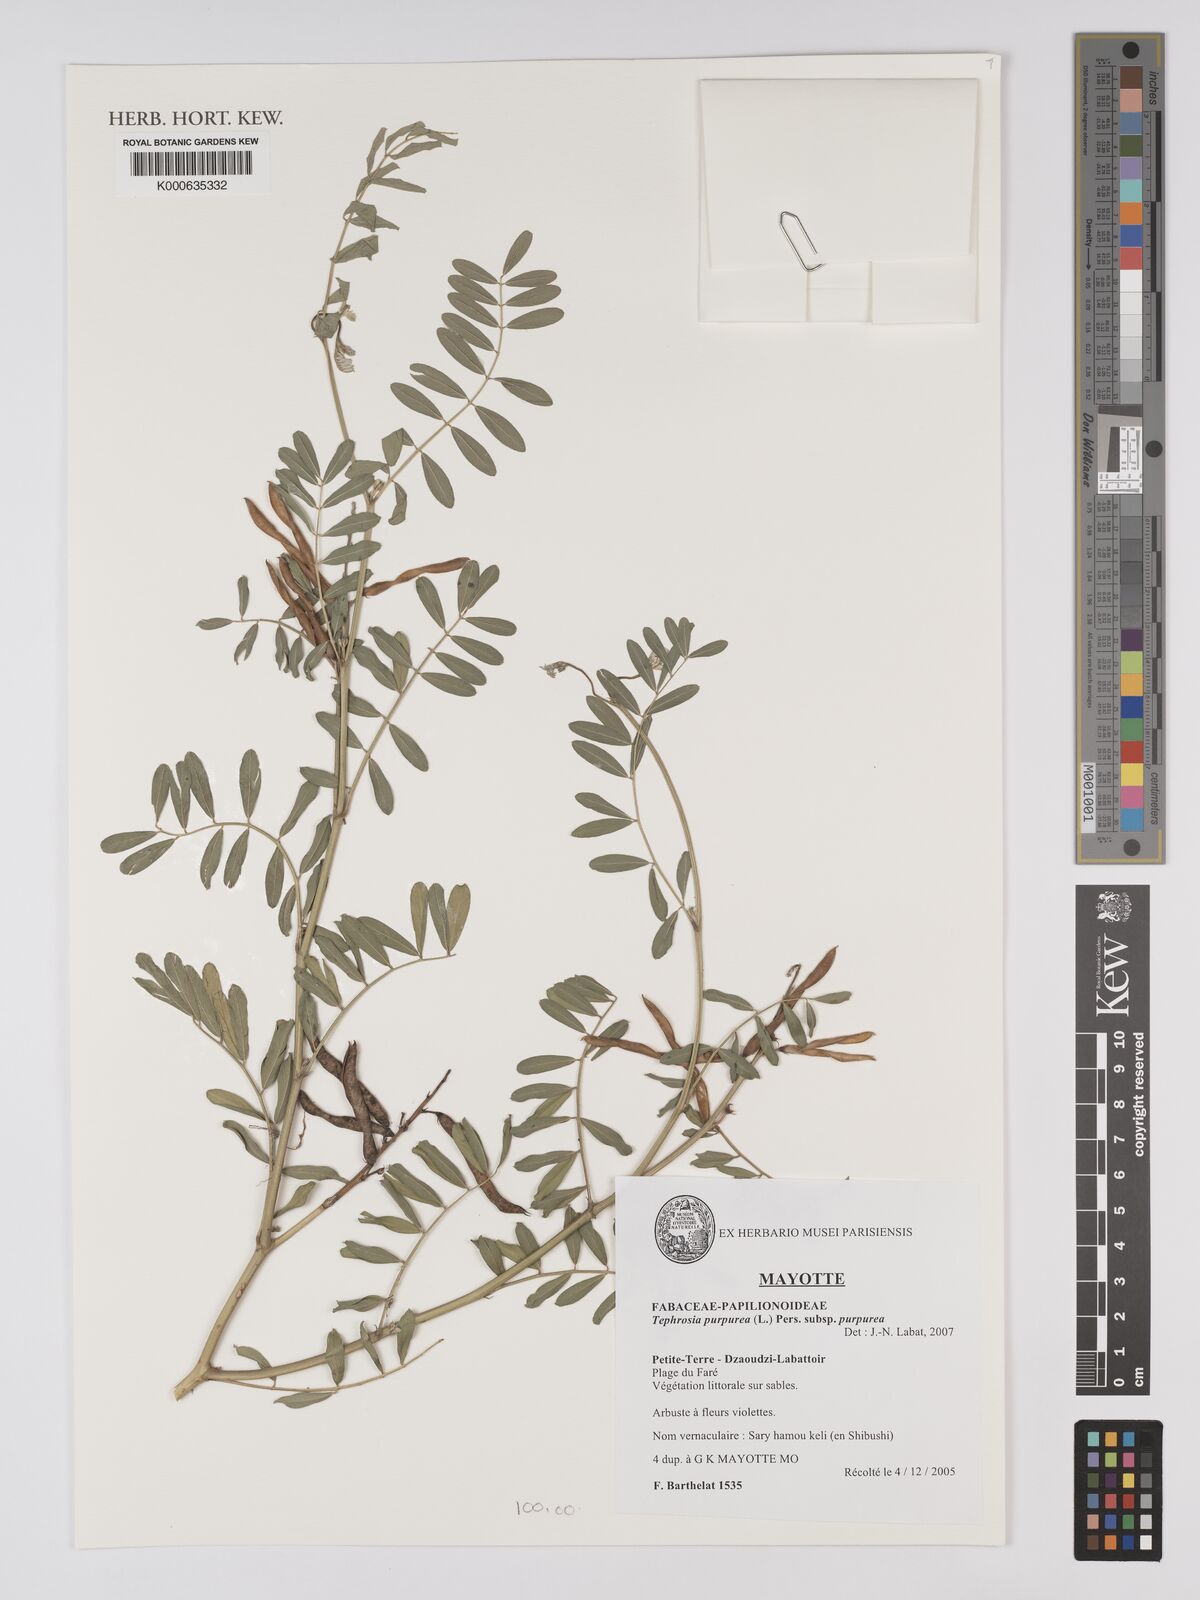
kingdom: Plantae
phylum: Tracheophyta
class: Magnoliopsida
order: Fabales
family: Fabaceae
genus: Tephrosia
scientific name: Tephrosia purpurea
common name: Fishpoison
